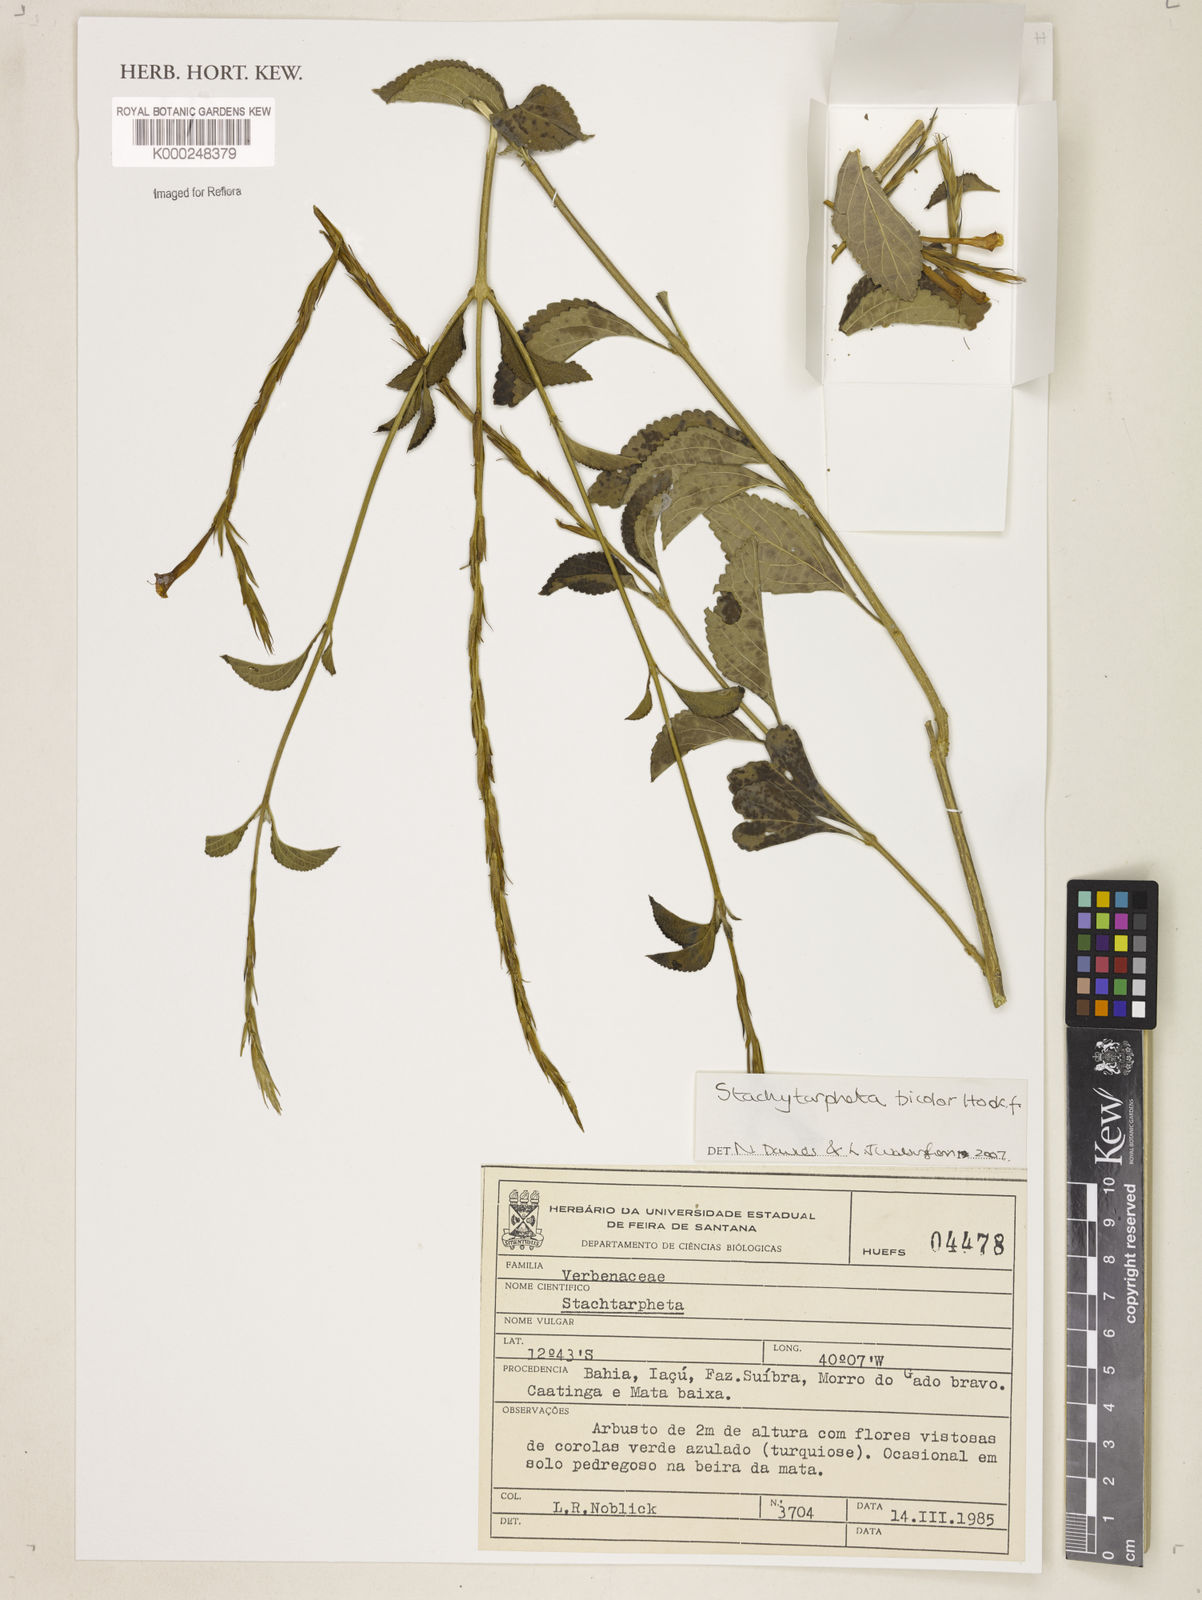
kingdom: Plantae
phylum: Tracheophyta
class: Magnoliopsida
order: Lamiales
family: Verbenaceae
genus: Stachytarpheta
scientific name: Stachytarpheta bicolor
